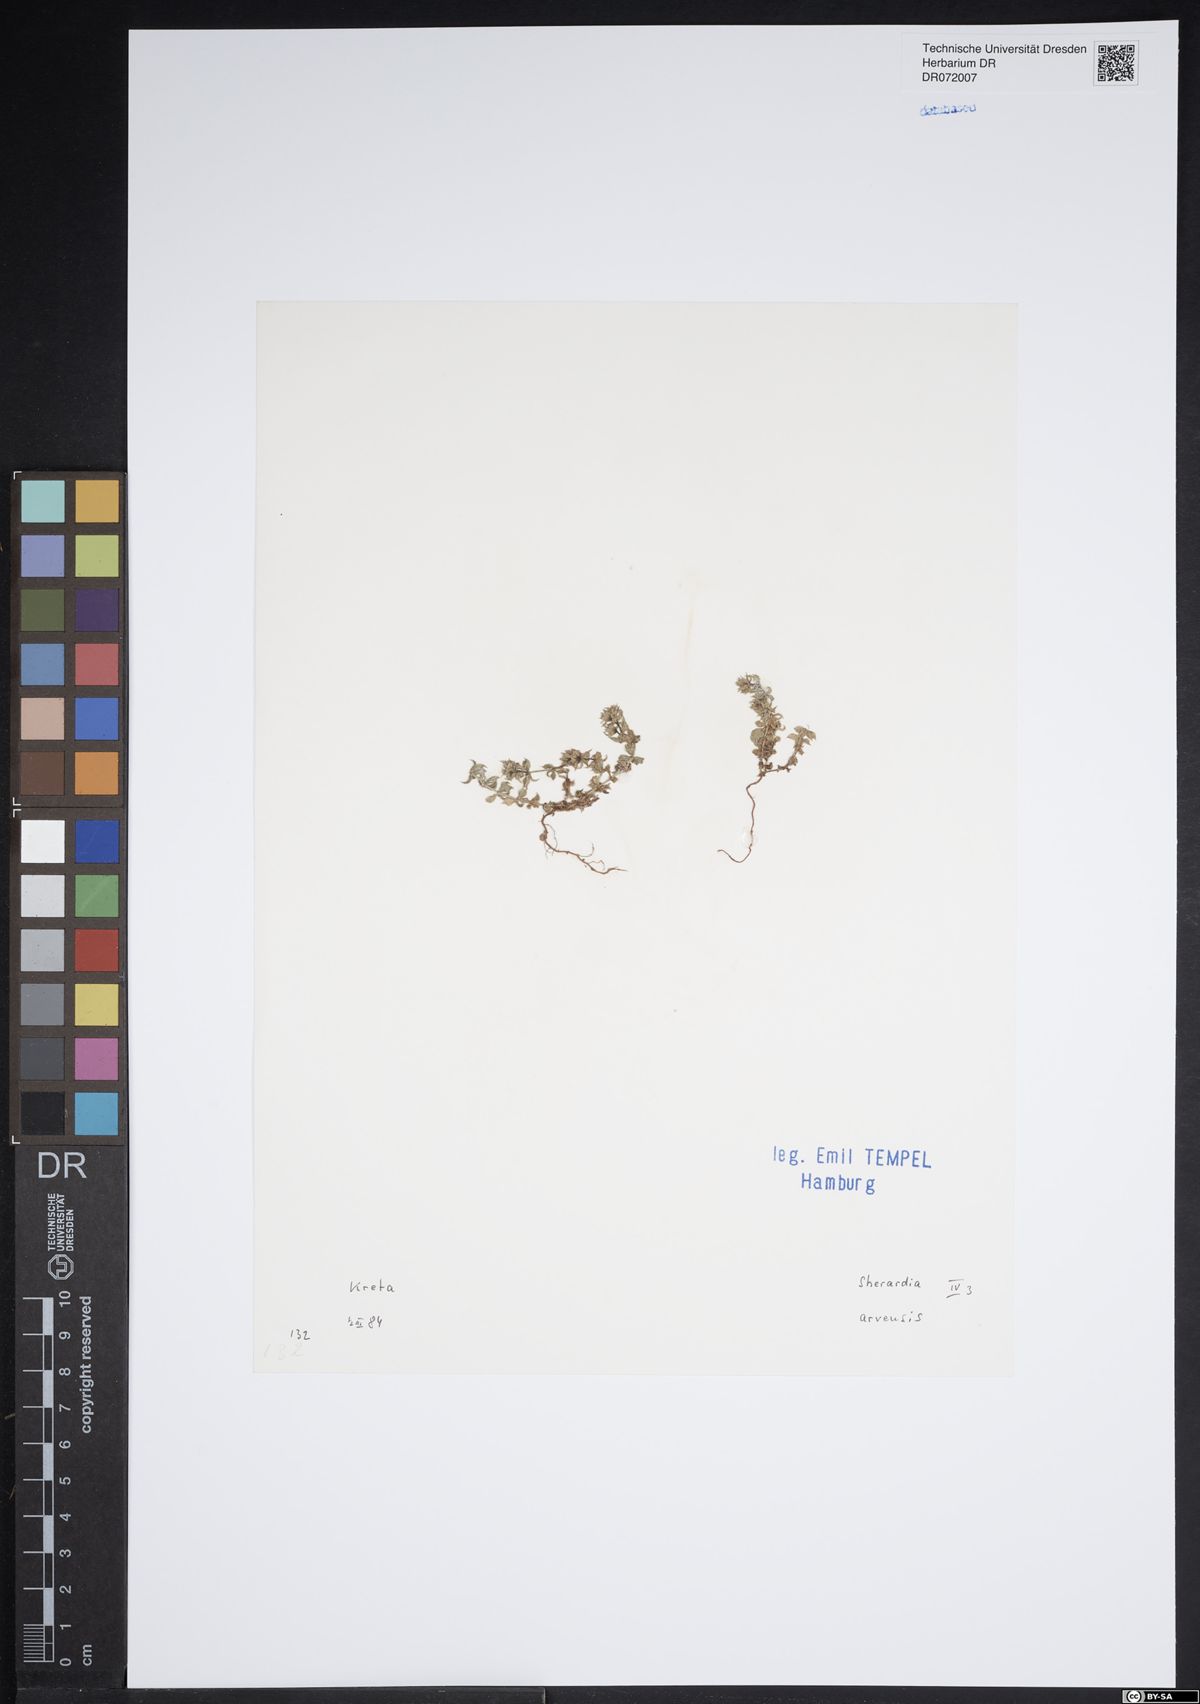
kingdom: Plantae
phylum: Tracheophyta
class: Magnoliopsida
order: Gentianales
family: Rubiaceae
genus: Sherardia
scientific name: Sherardia arvensis
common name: Field madder
